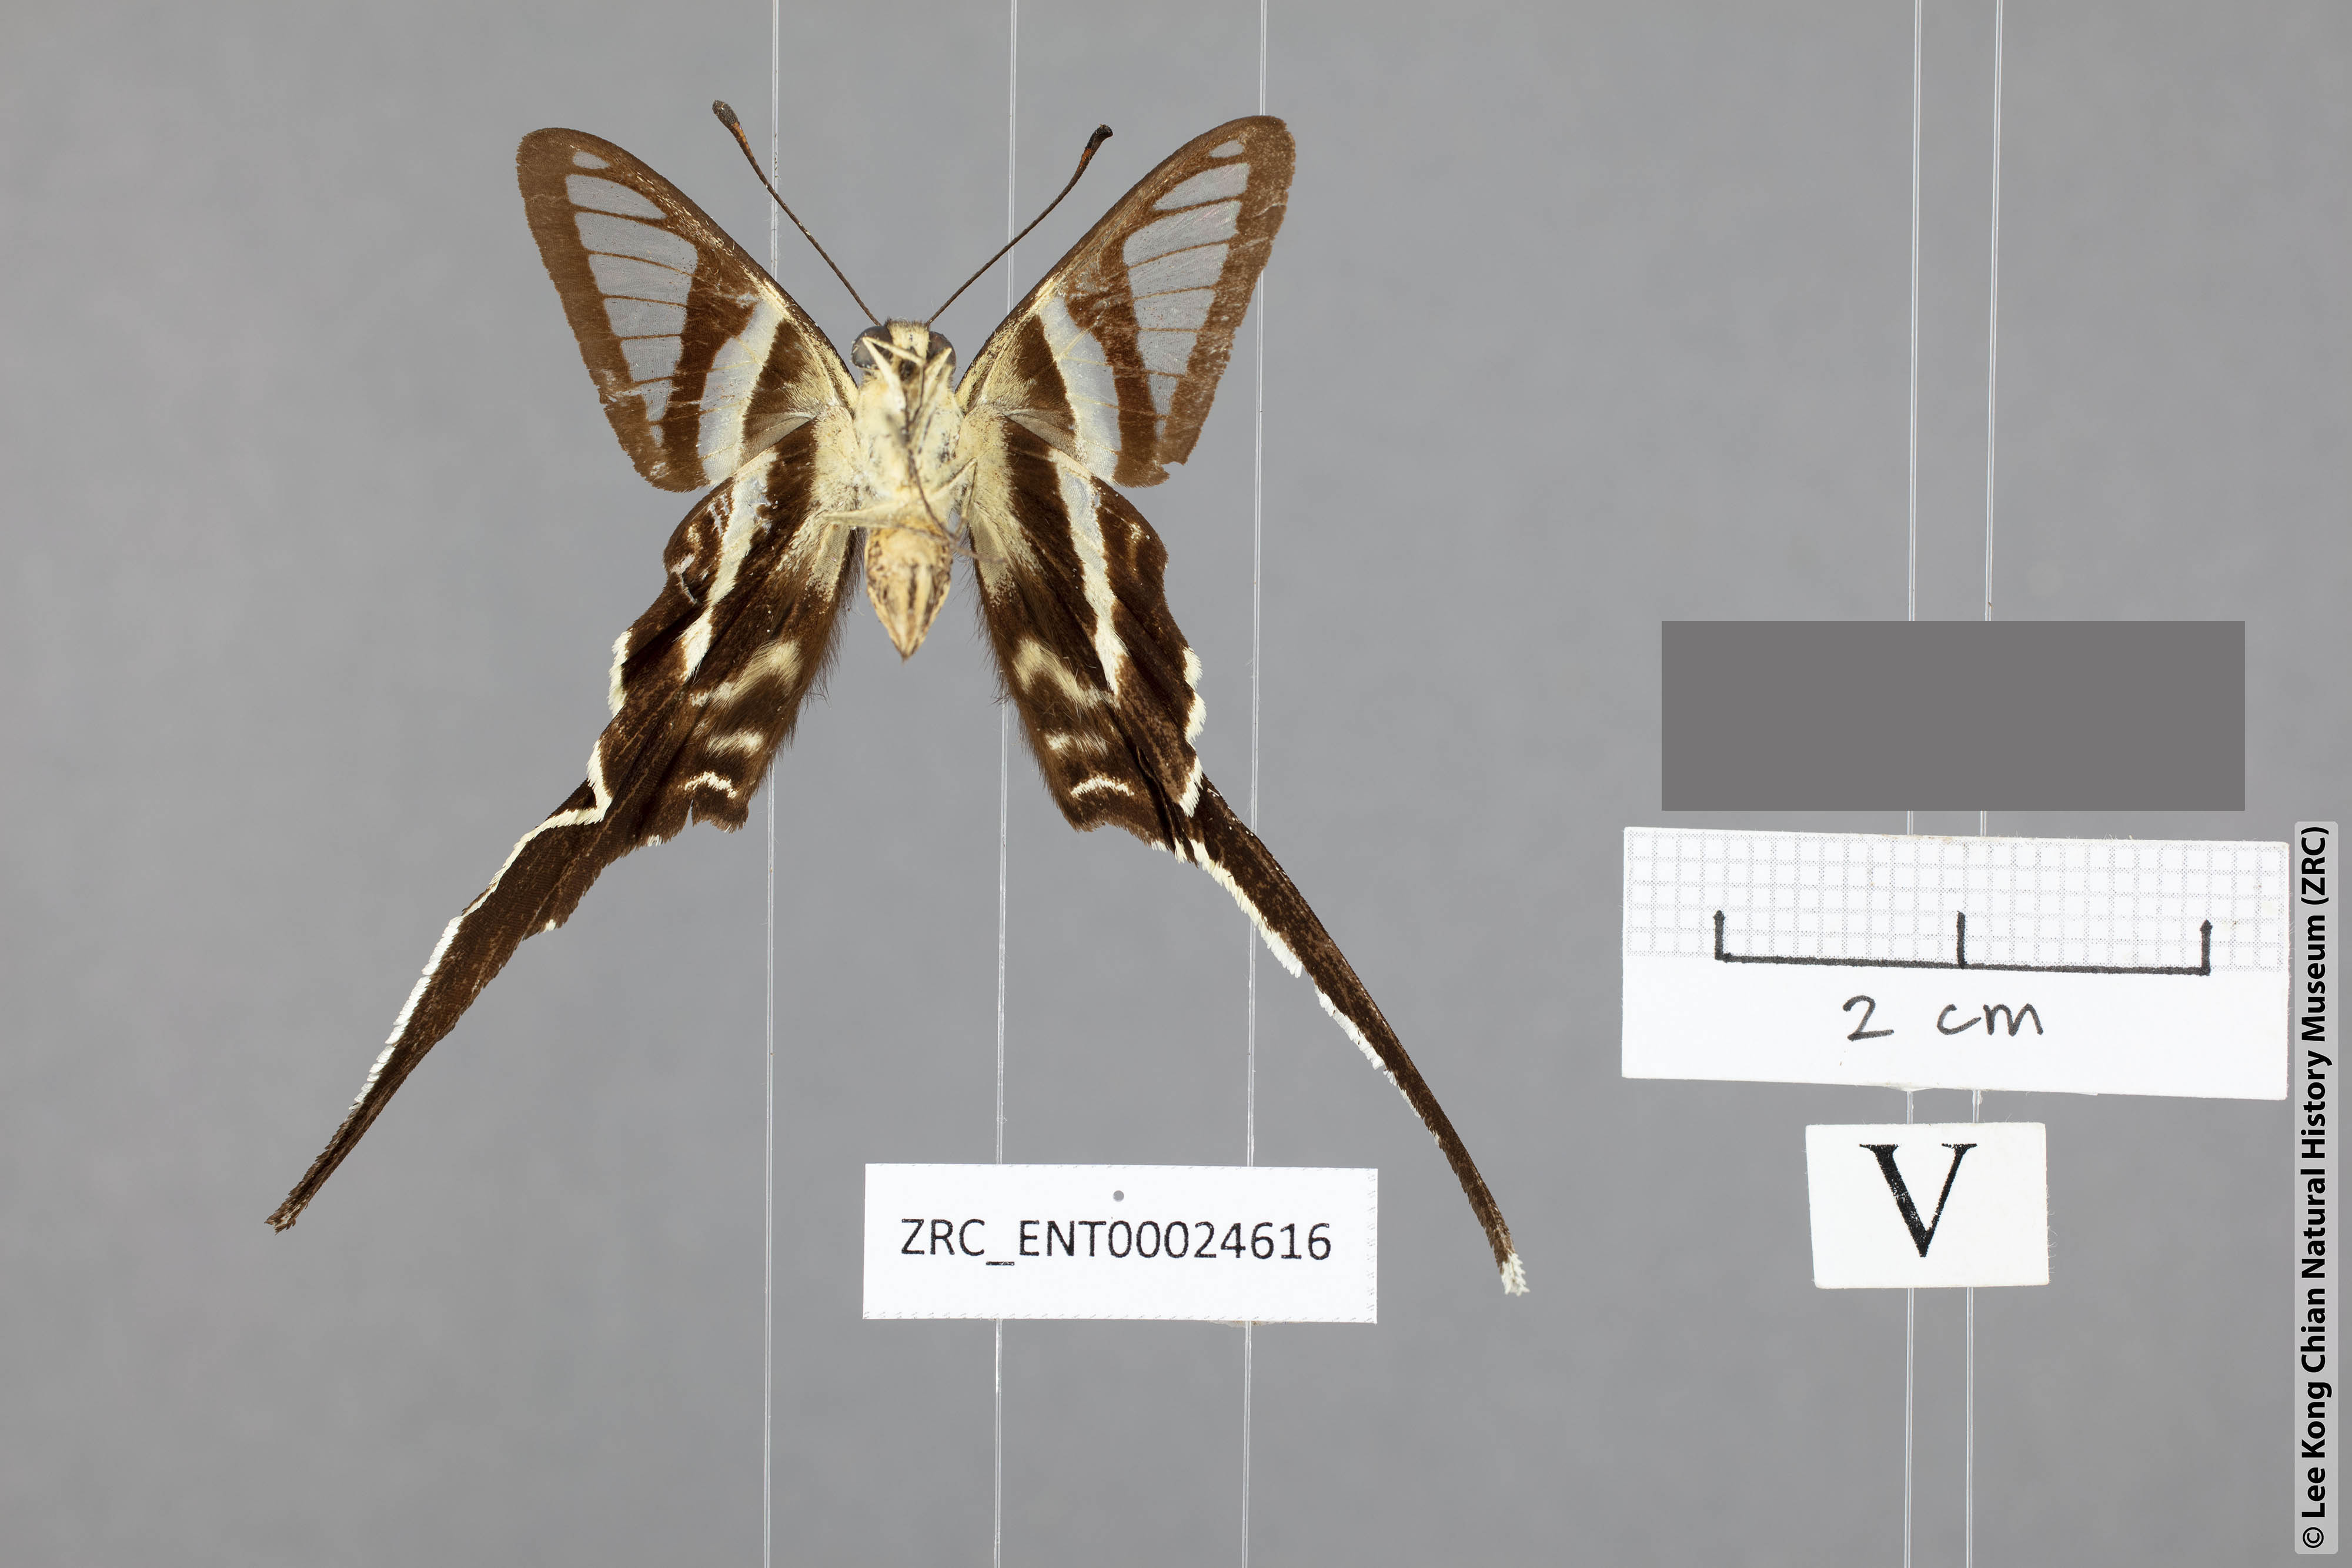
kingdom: Animalia
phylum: Arthropoda
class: Insecta
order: Lepidoptera
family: Papilionidae
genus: Lamproptera
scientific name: Lamproptera curius
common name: White dragontail
